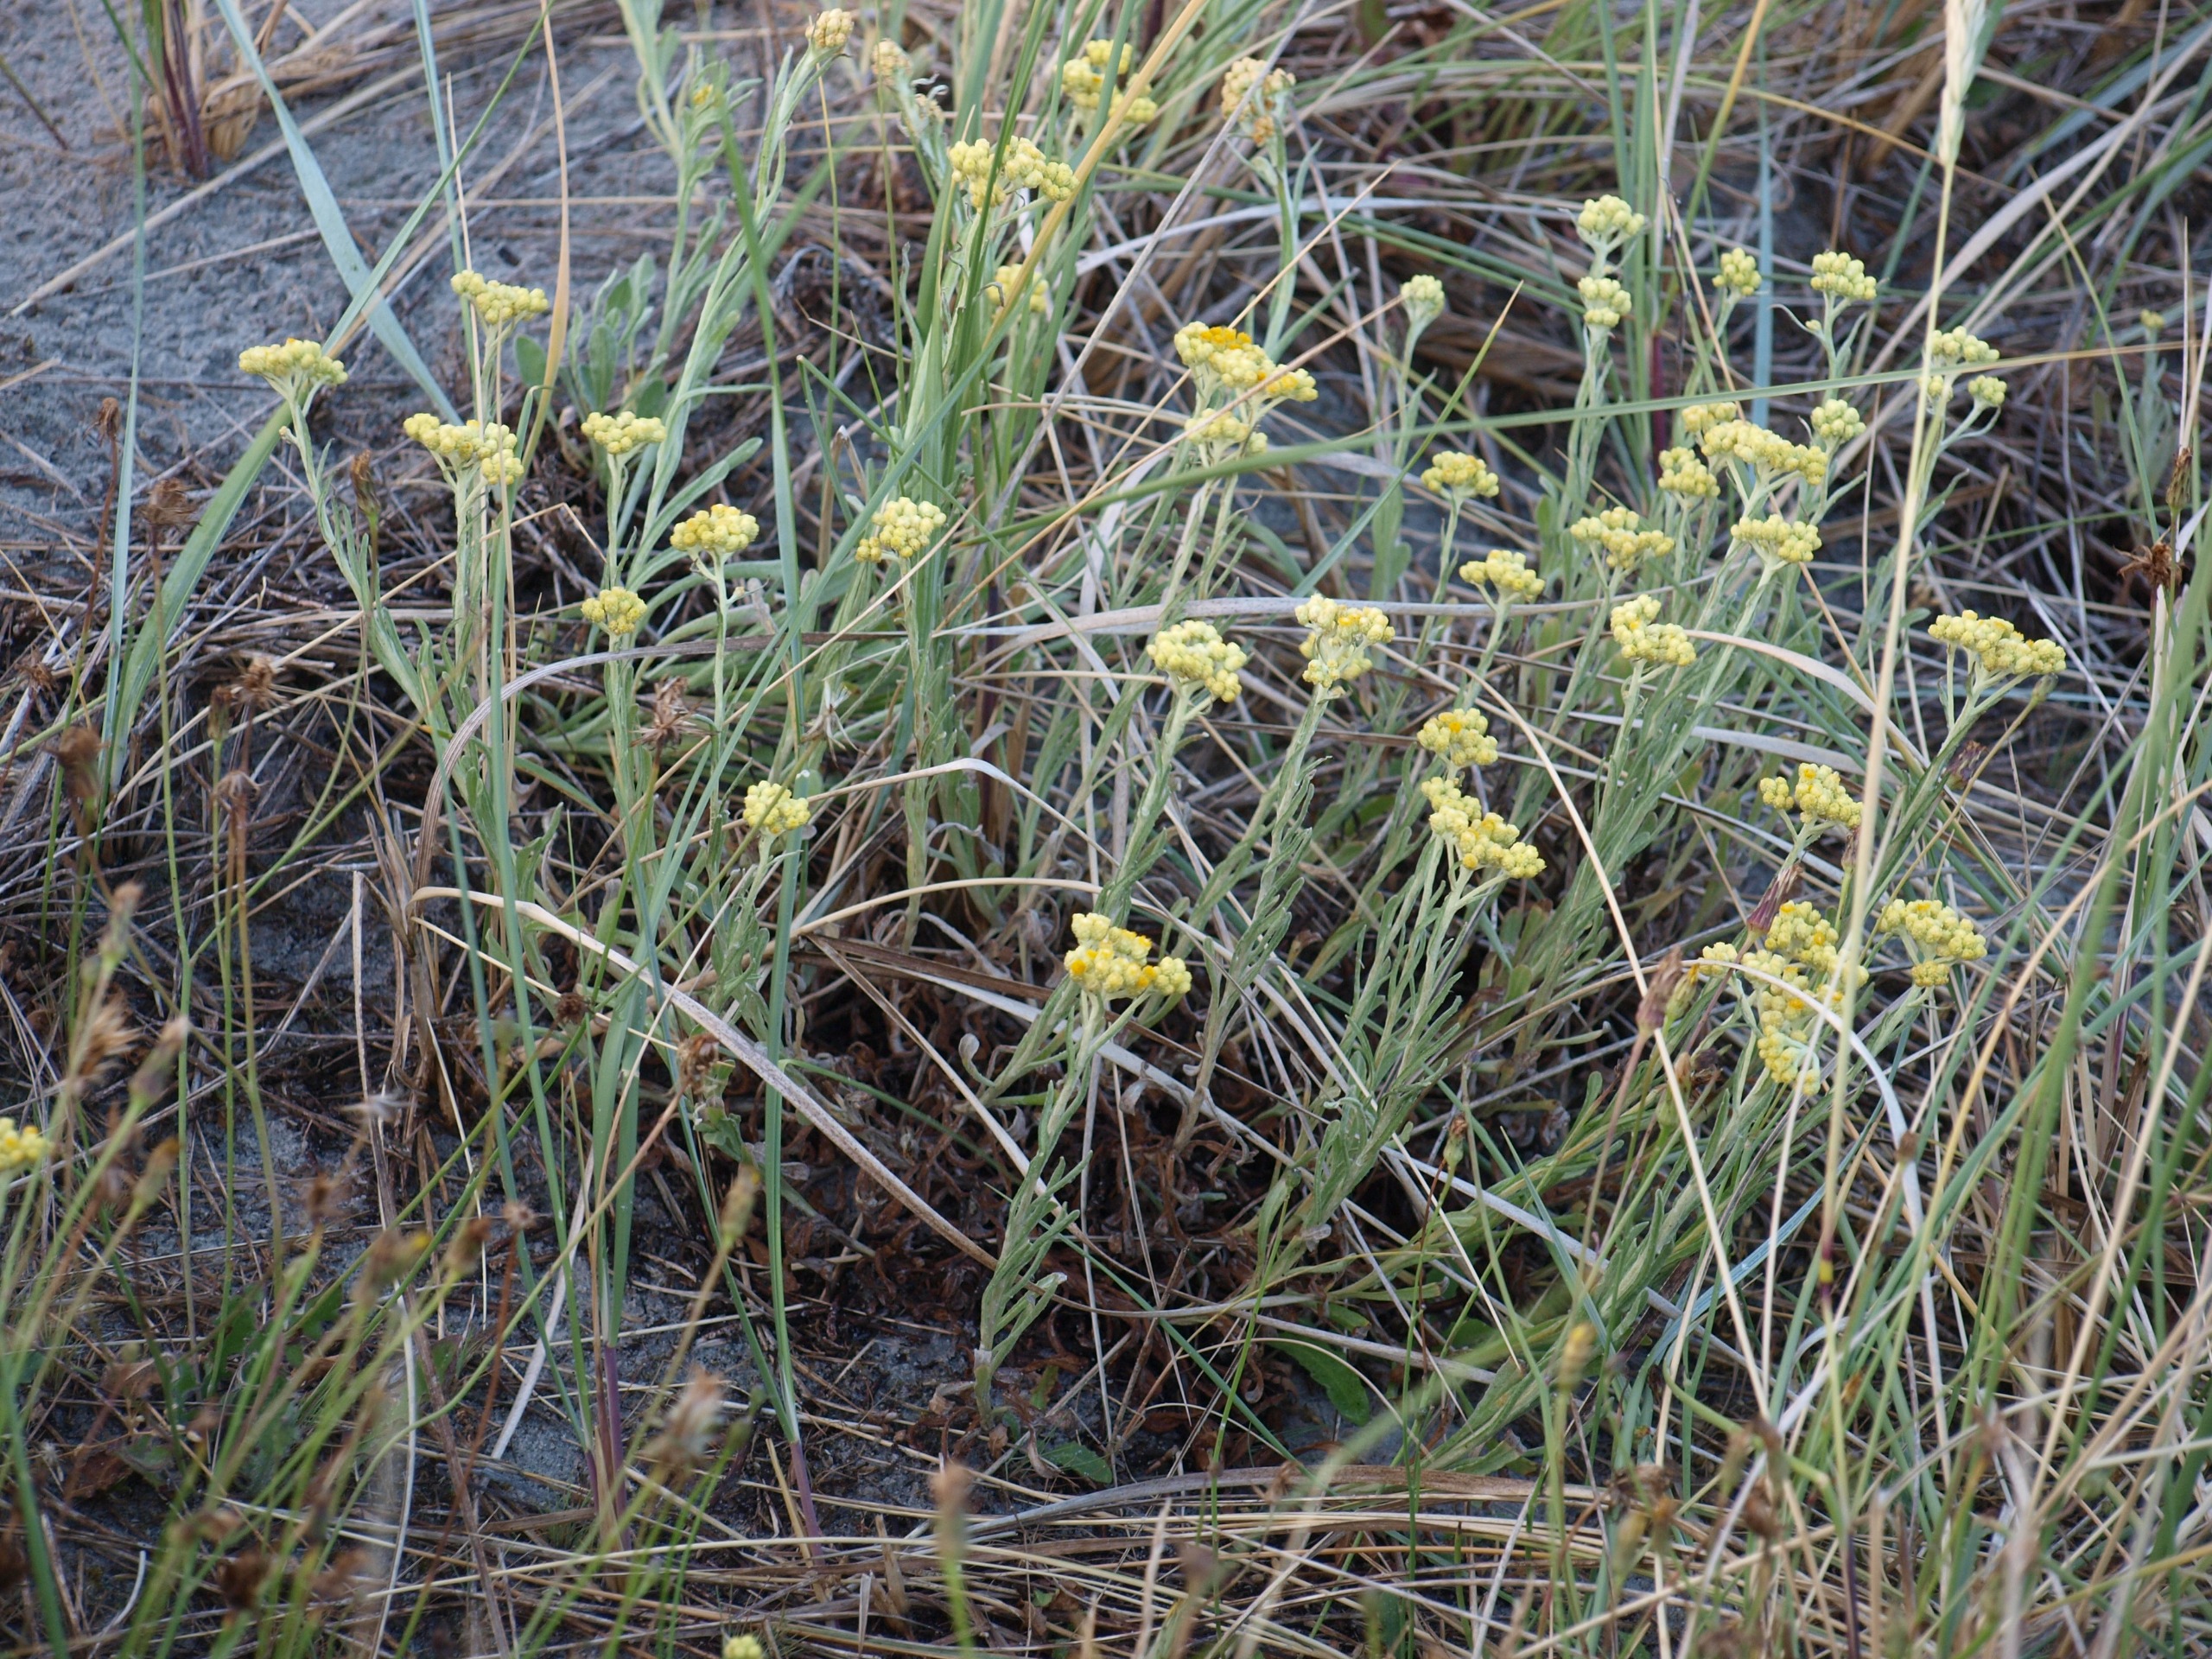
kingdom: Plantae
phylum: Tracheophyta
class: Magnoliopsida
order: Asterales
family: Asteraceae
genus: Helichrysum
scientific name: Helichrysum arenarium
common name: Gul evighedsblomst
